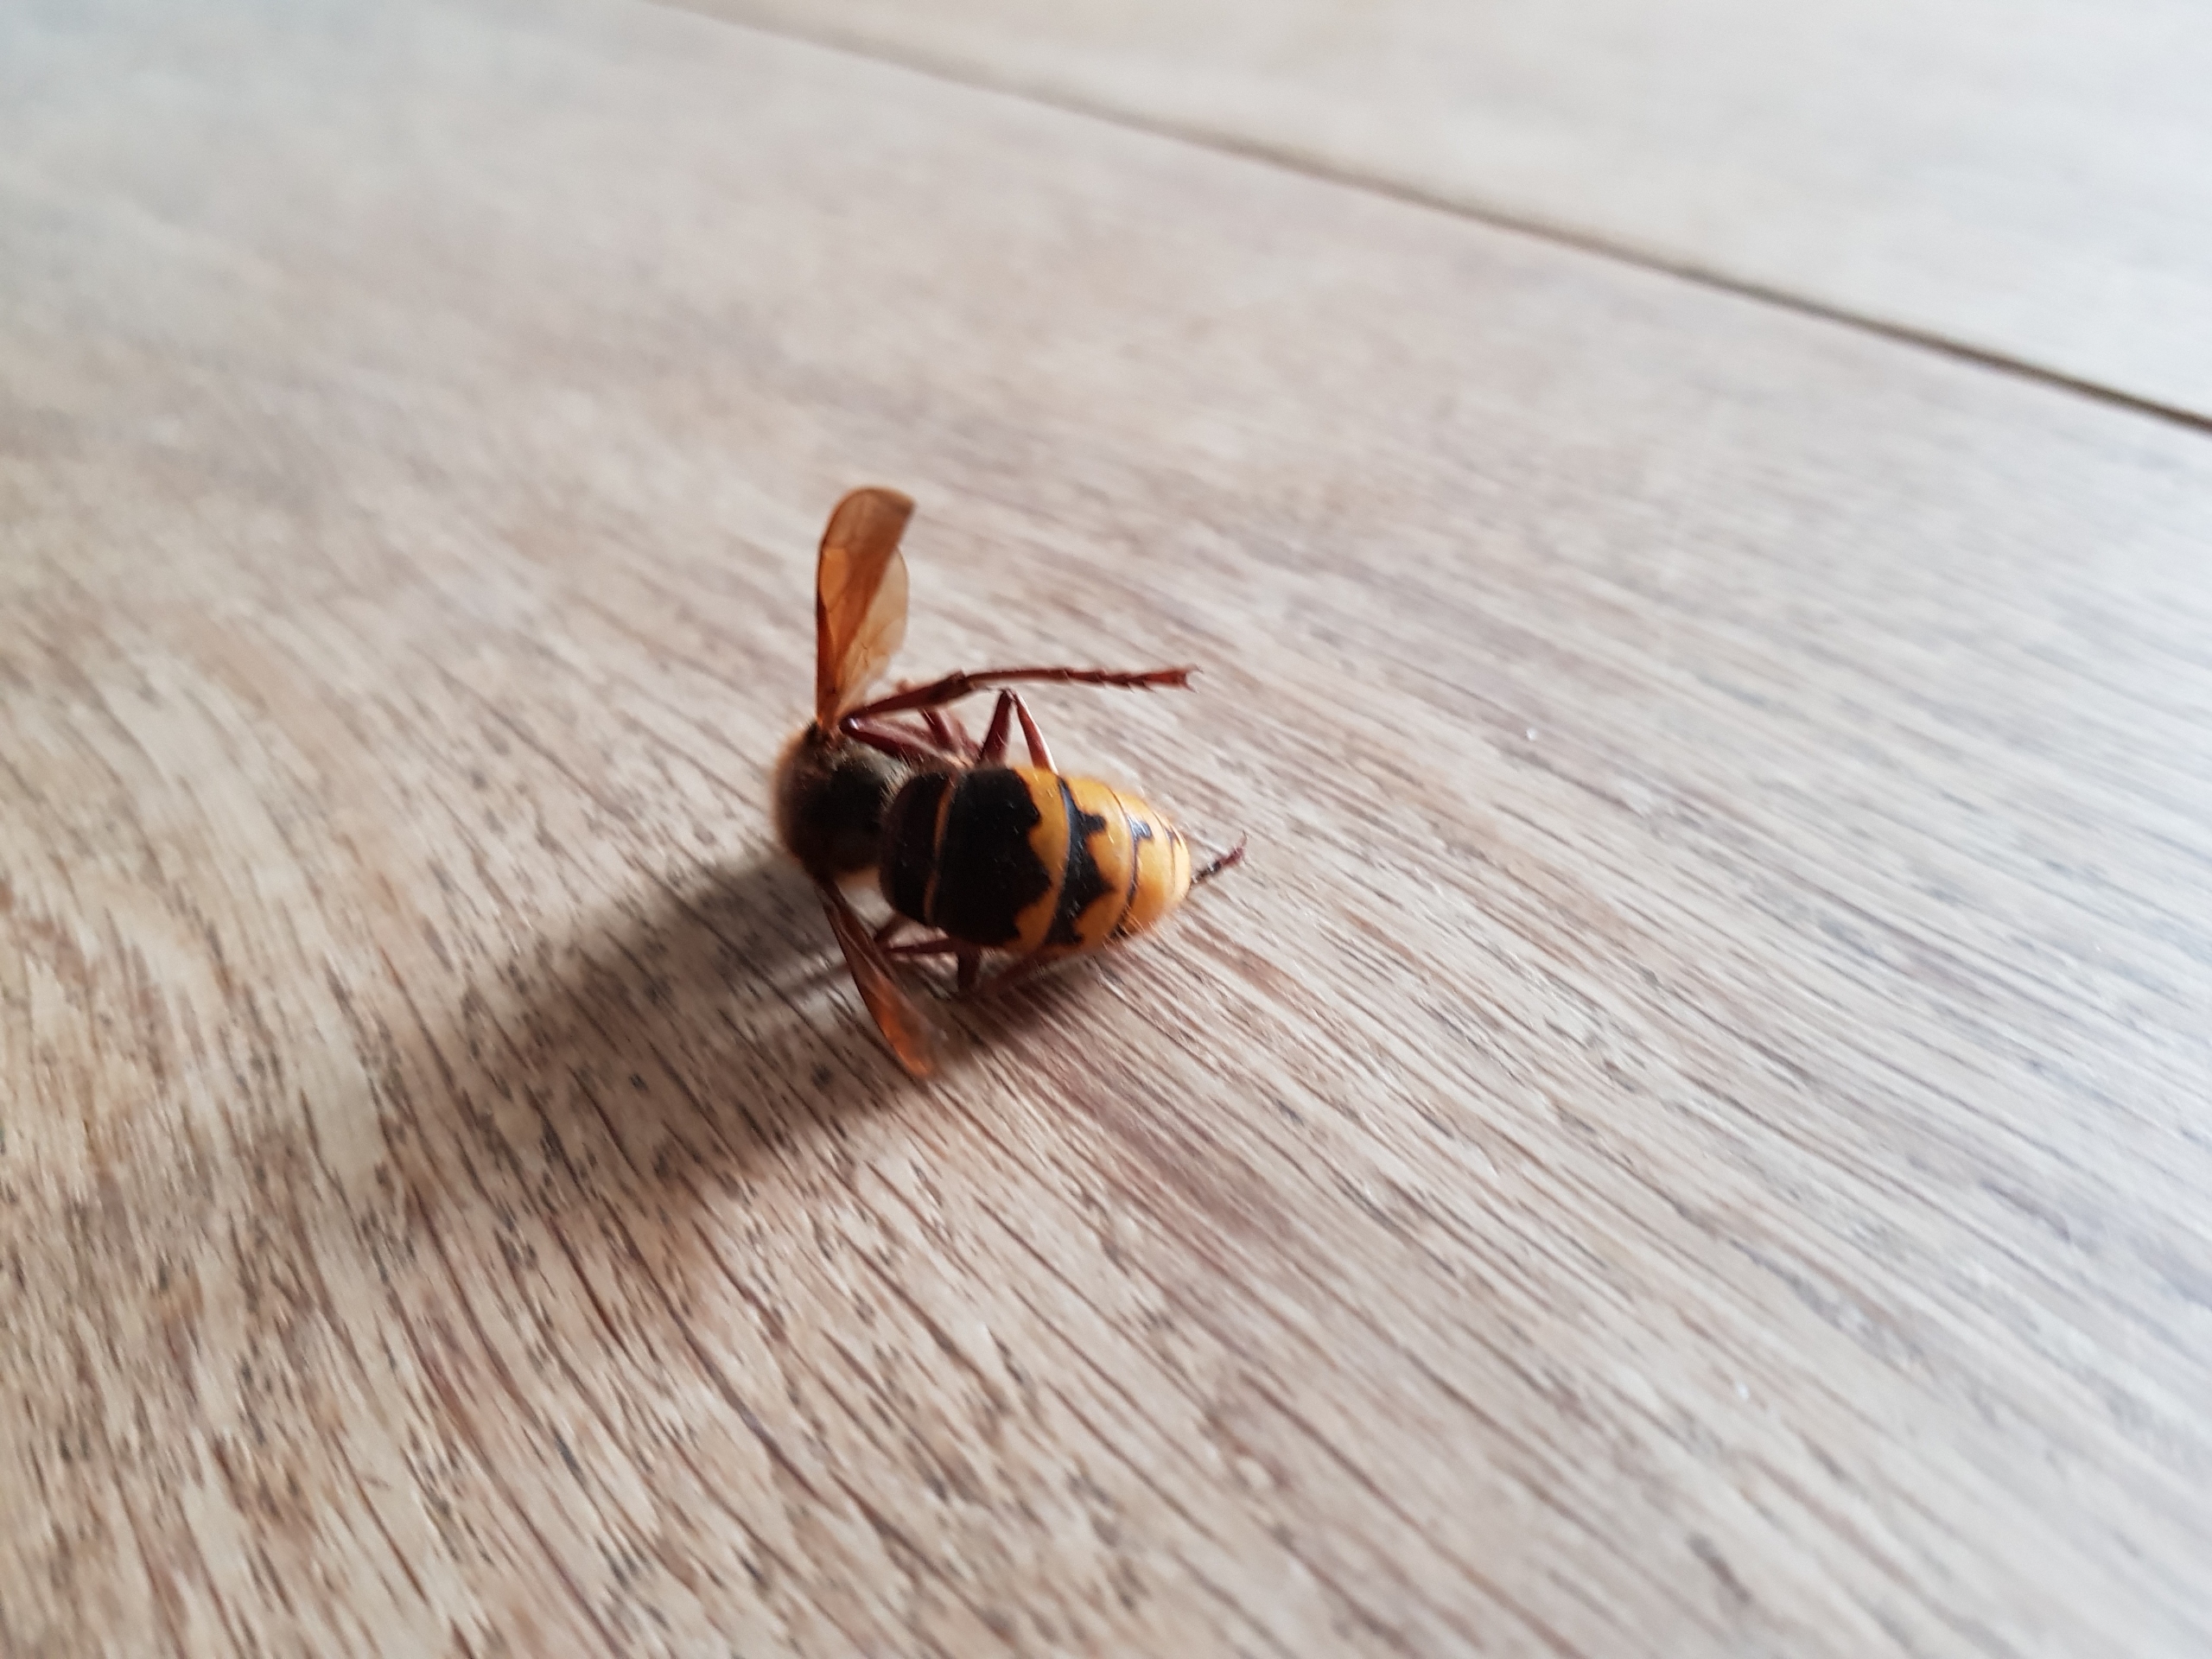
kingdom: Animalia
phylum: Arthropoda
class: Insecta
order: Hymenoptera
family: Vespidae
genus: Vespa
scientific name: Vespa crabro
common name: Stor gedehams
